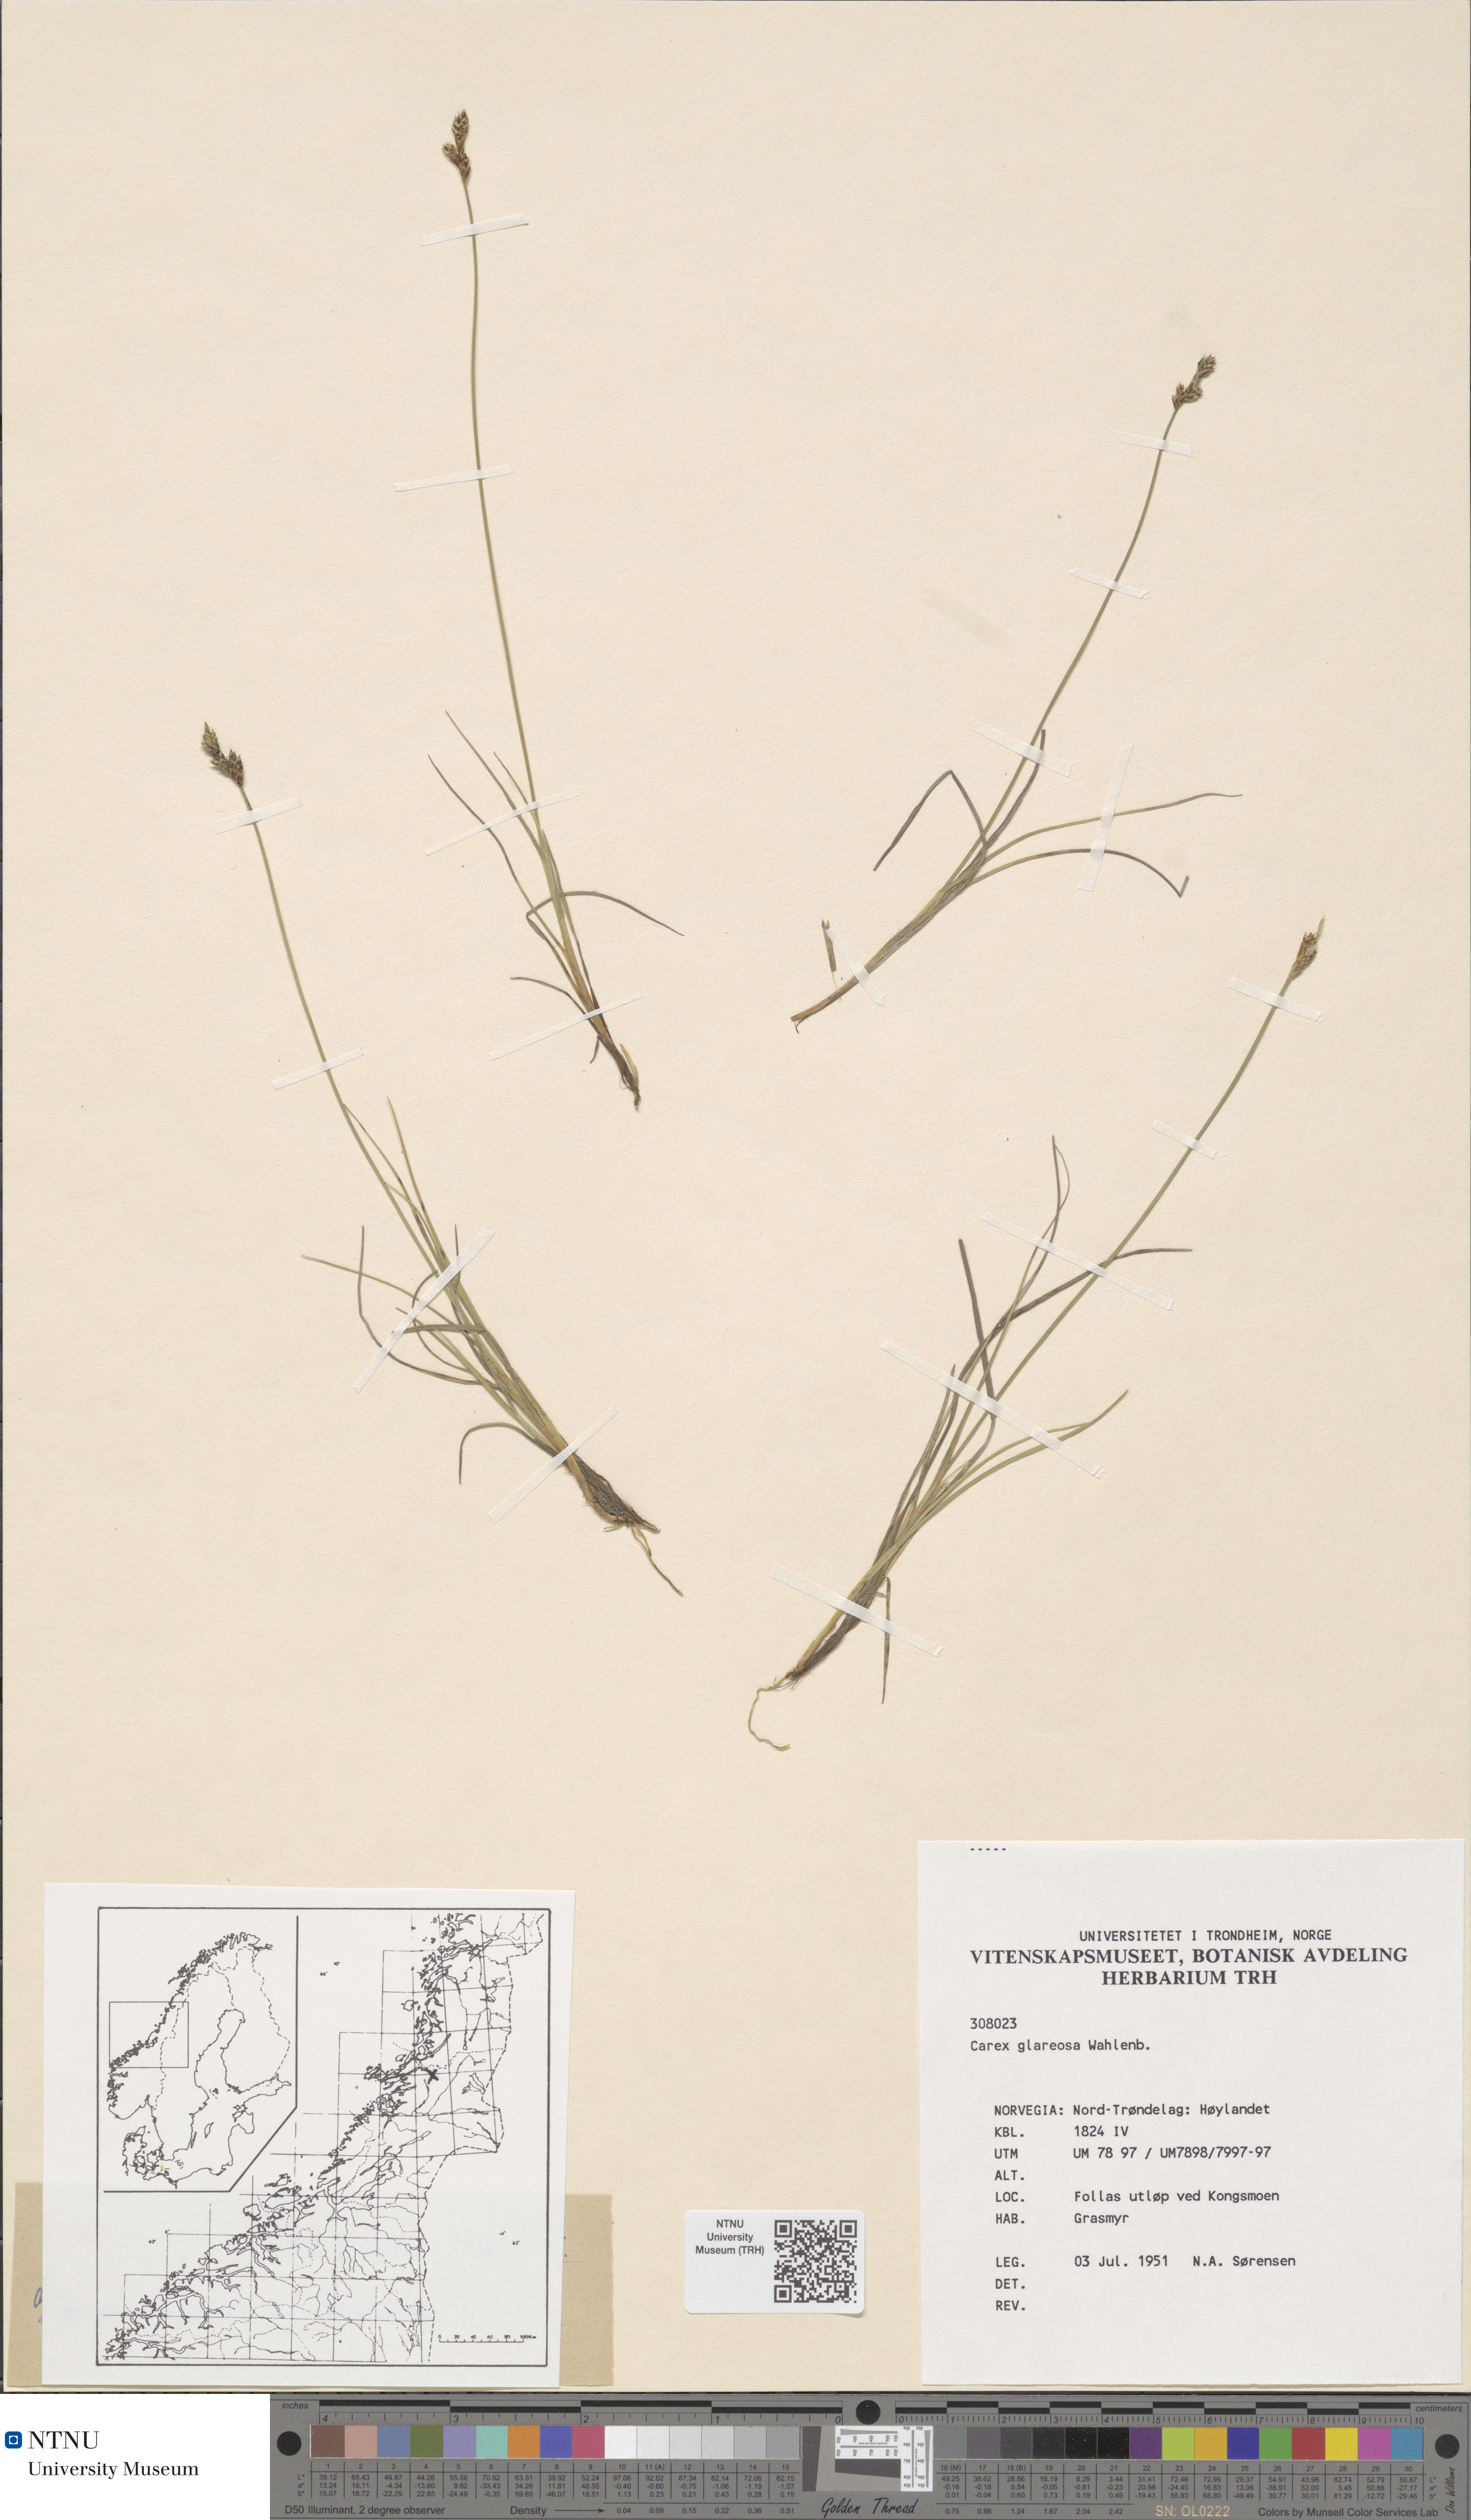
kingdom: Plantae
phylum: Tracheophyta
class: Liliopsida
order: Poales
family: Cyperaceae
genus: Carex
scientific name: Carex glareosa
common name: Clustered sedge
